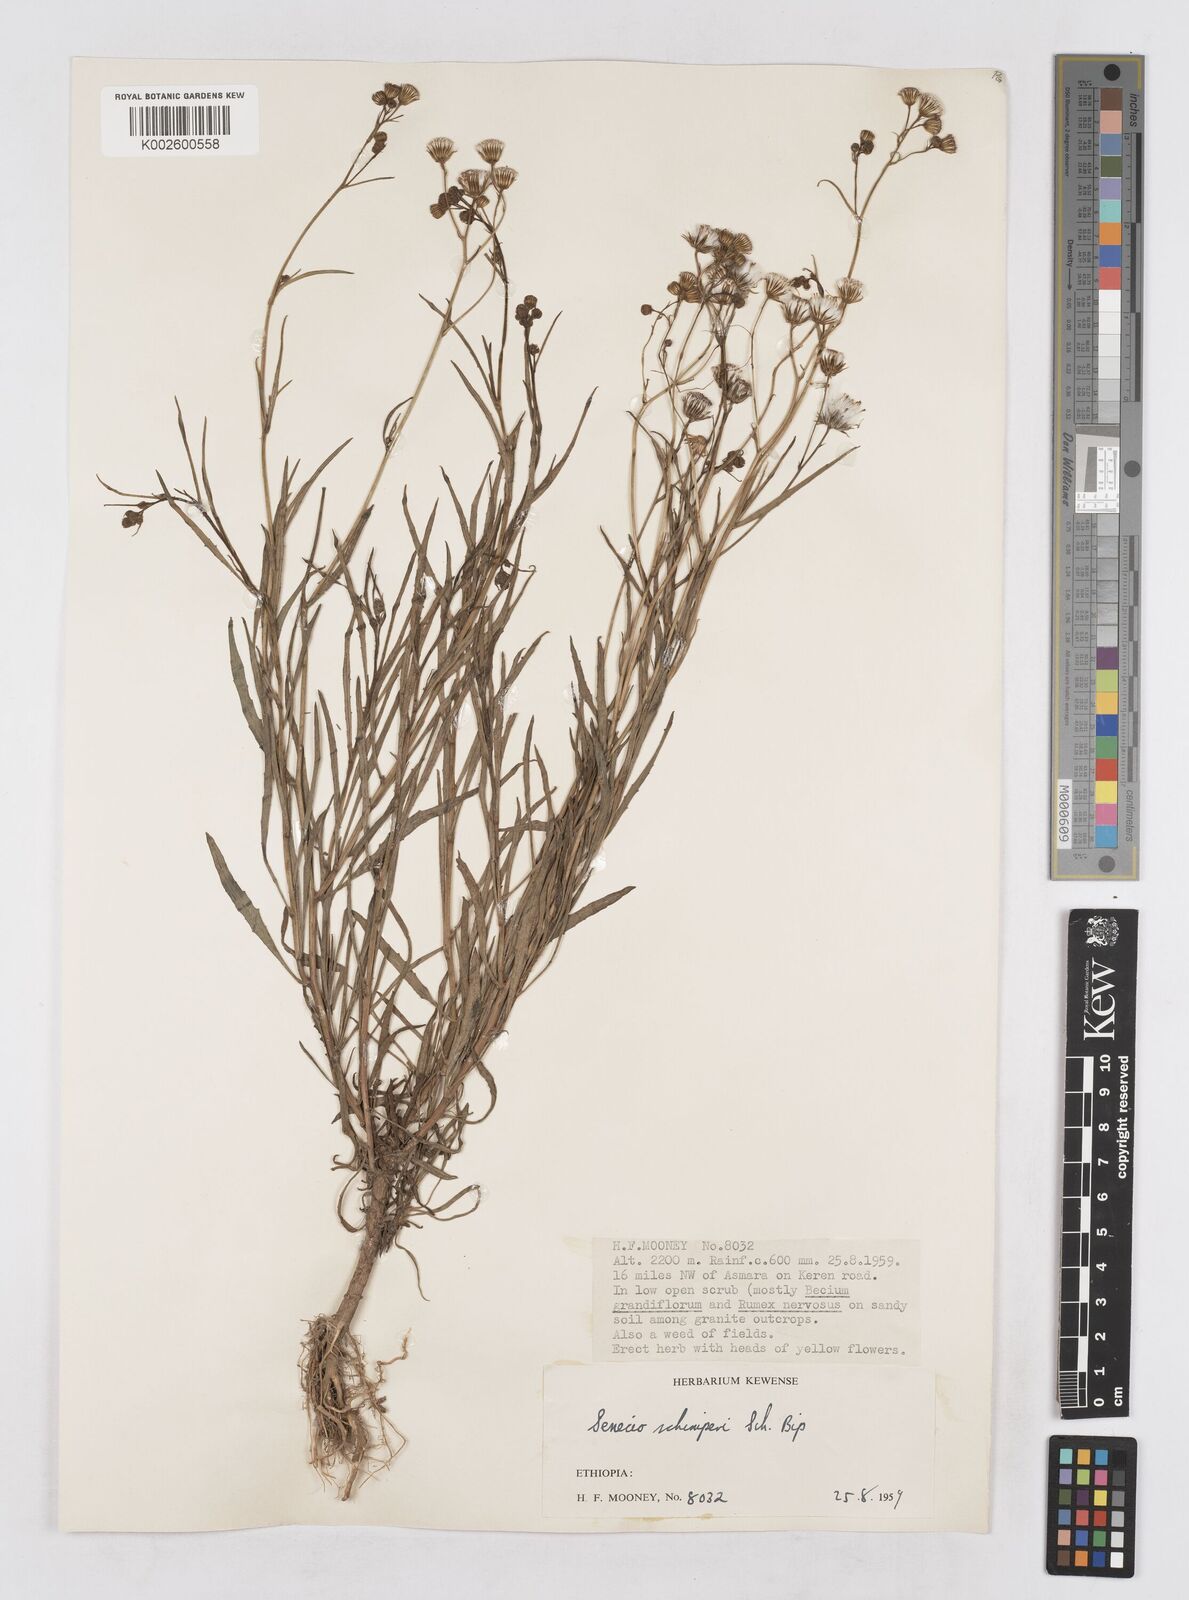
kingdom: Plantae
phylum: Tracheophyta
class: Magnoliopsida
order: Asterales
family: Asteraceae
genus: Senecio
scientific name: Senecio schimperi
